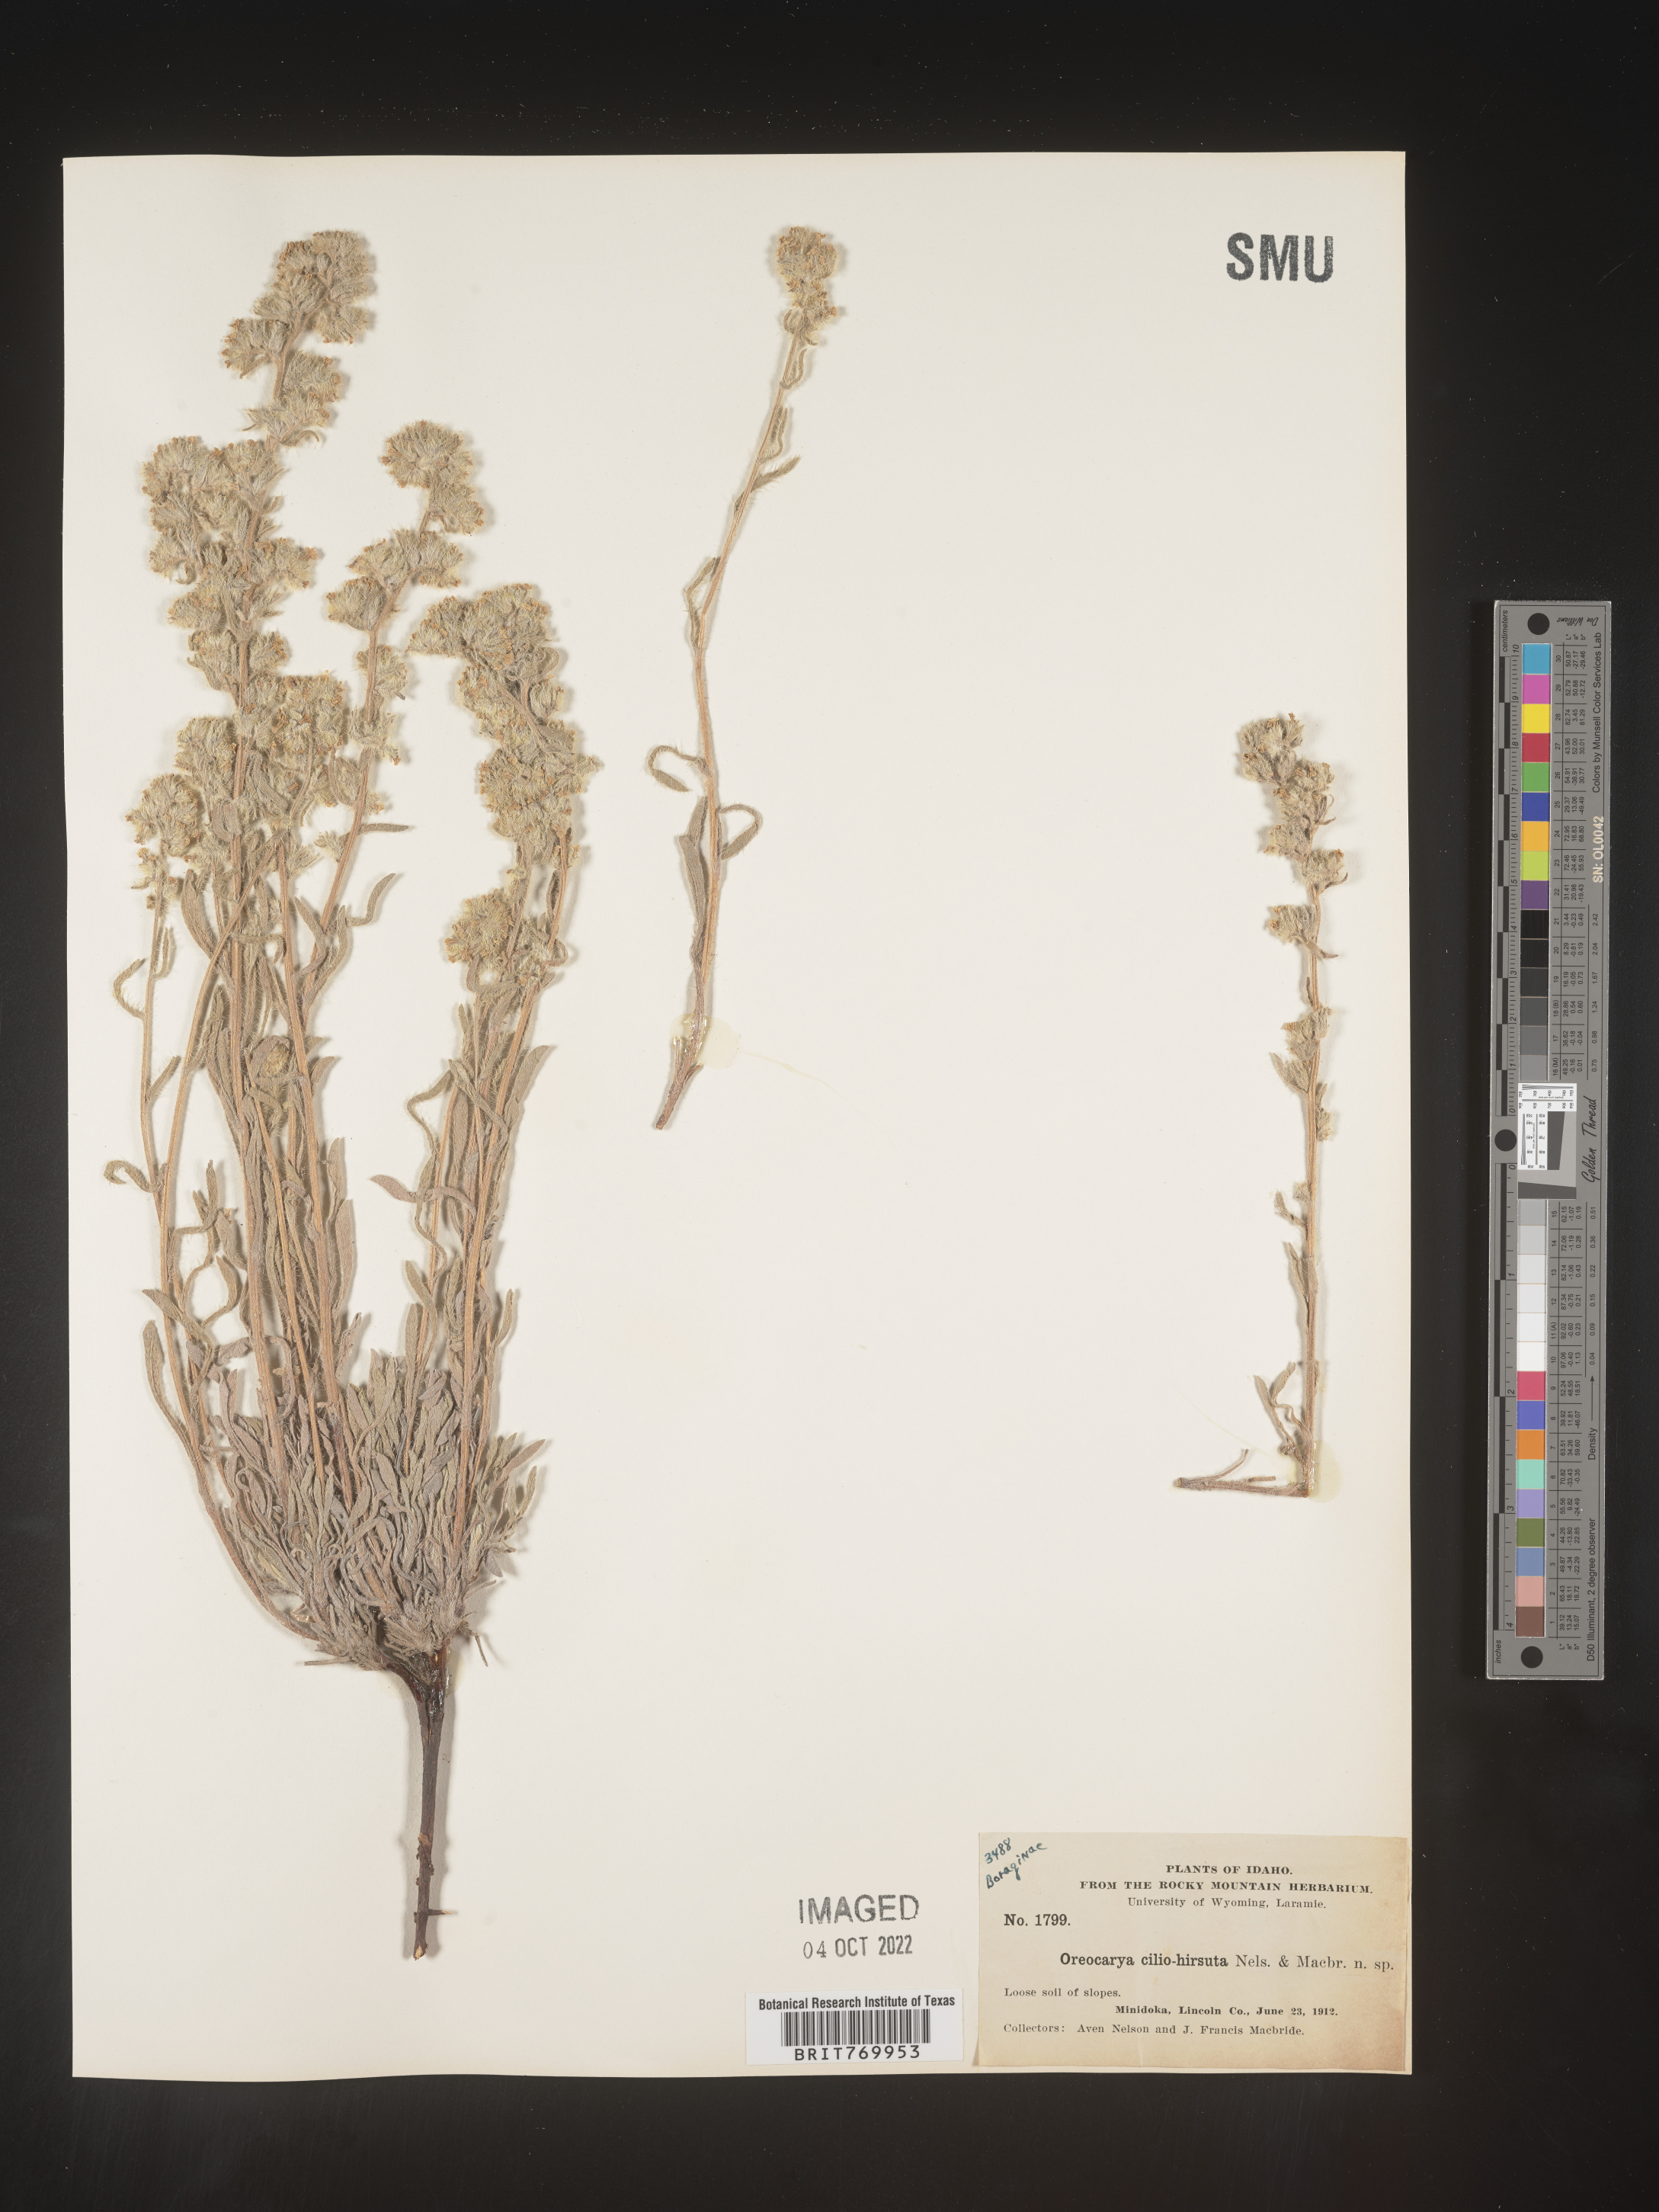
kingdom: Plantae
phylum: Tracheophyta
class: Magnoliopsida
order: Boraginales
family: Boraginaceae
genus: Oreocarya
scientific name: Oreocarya
